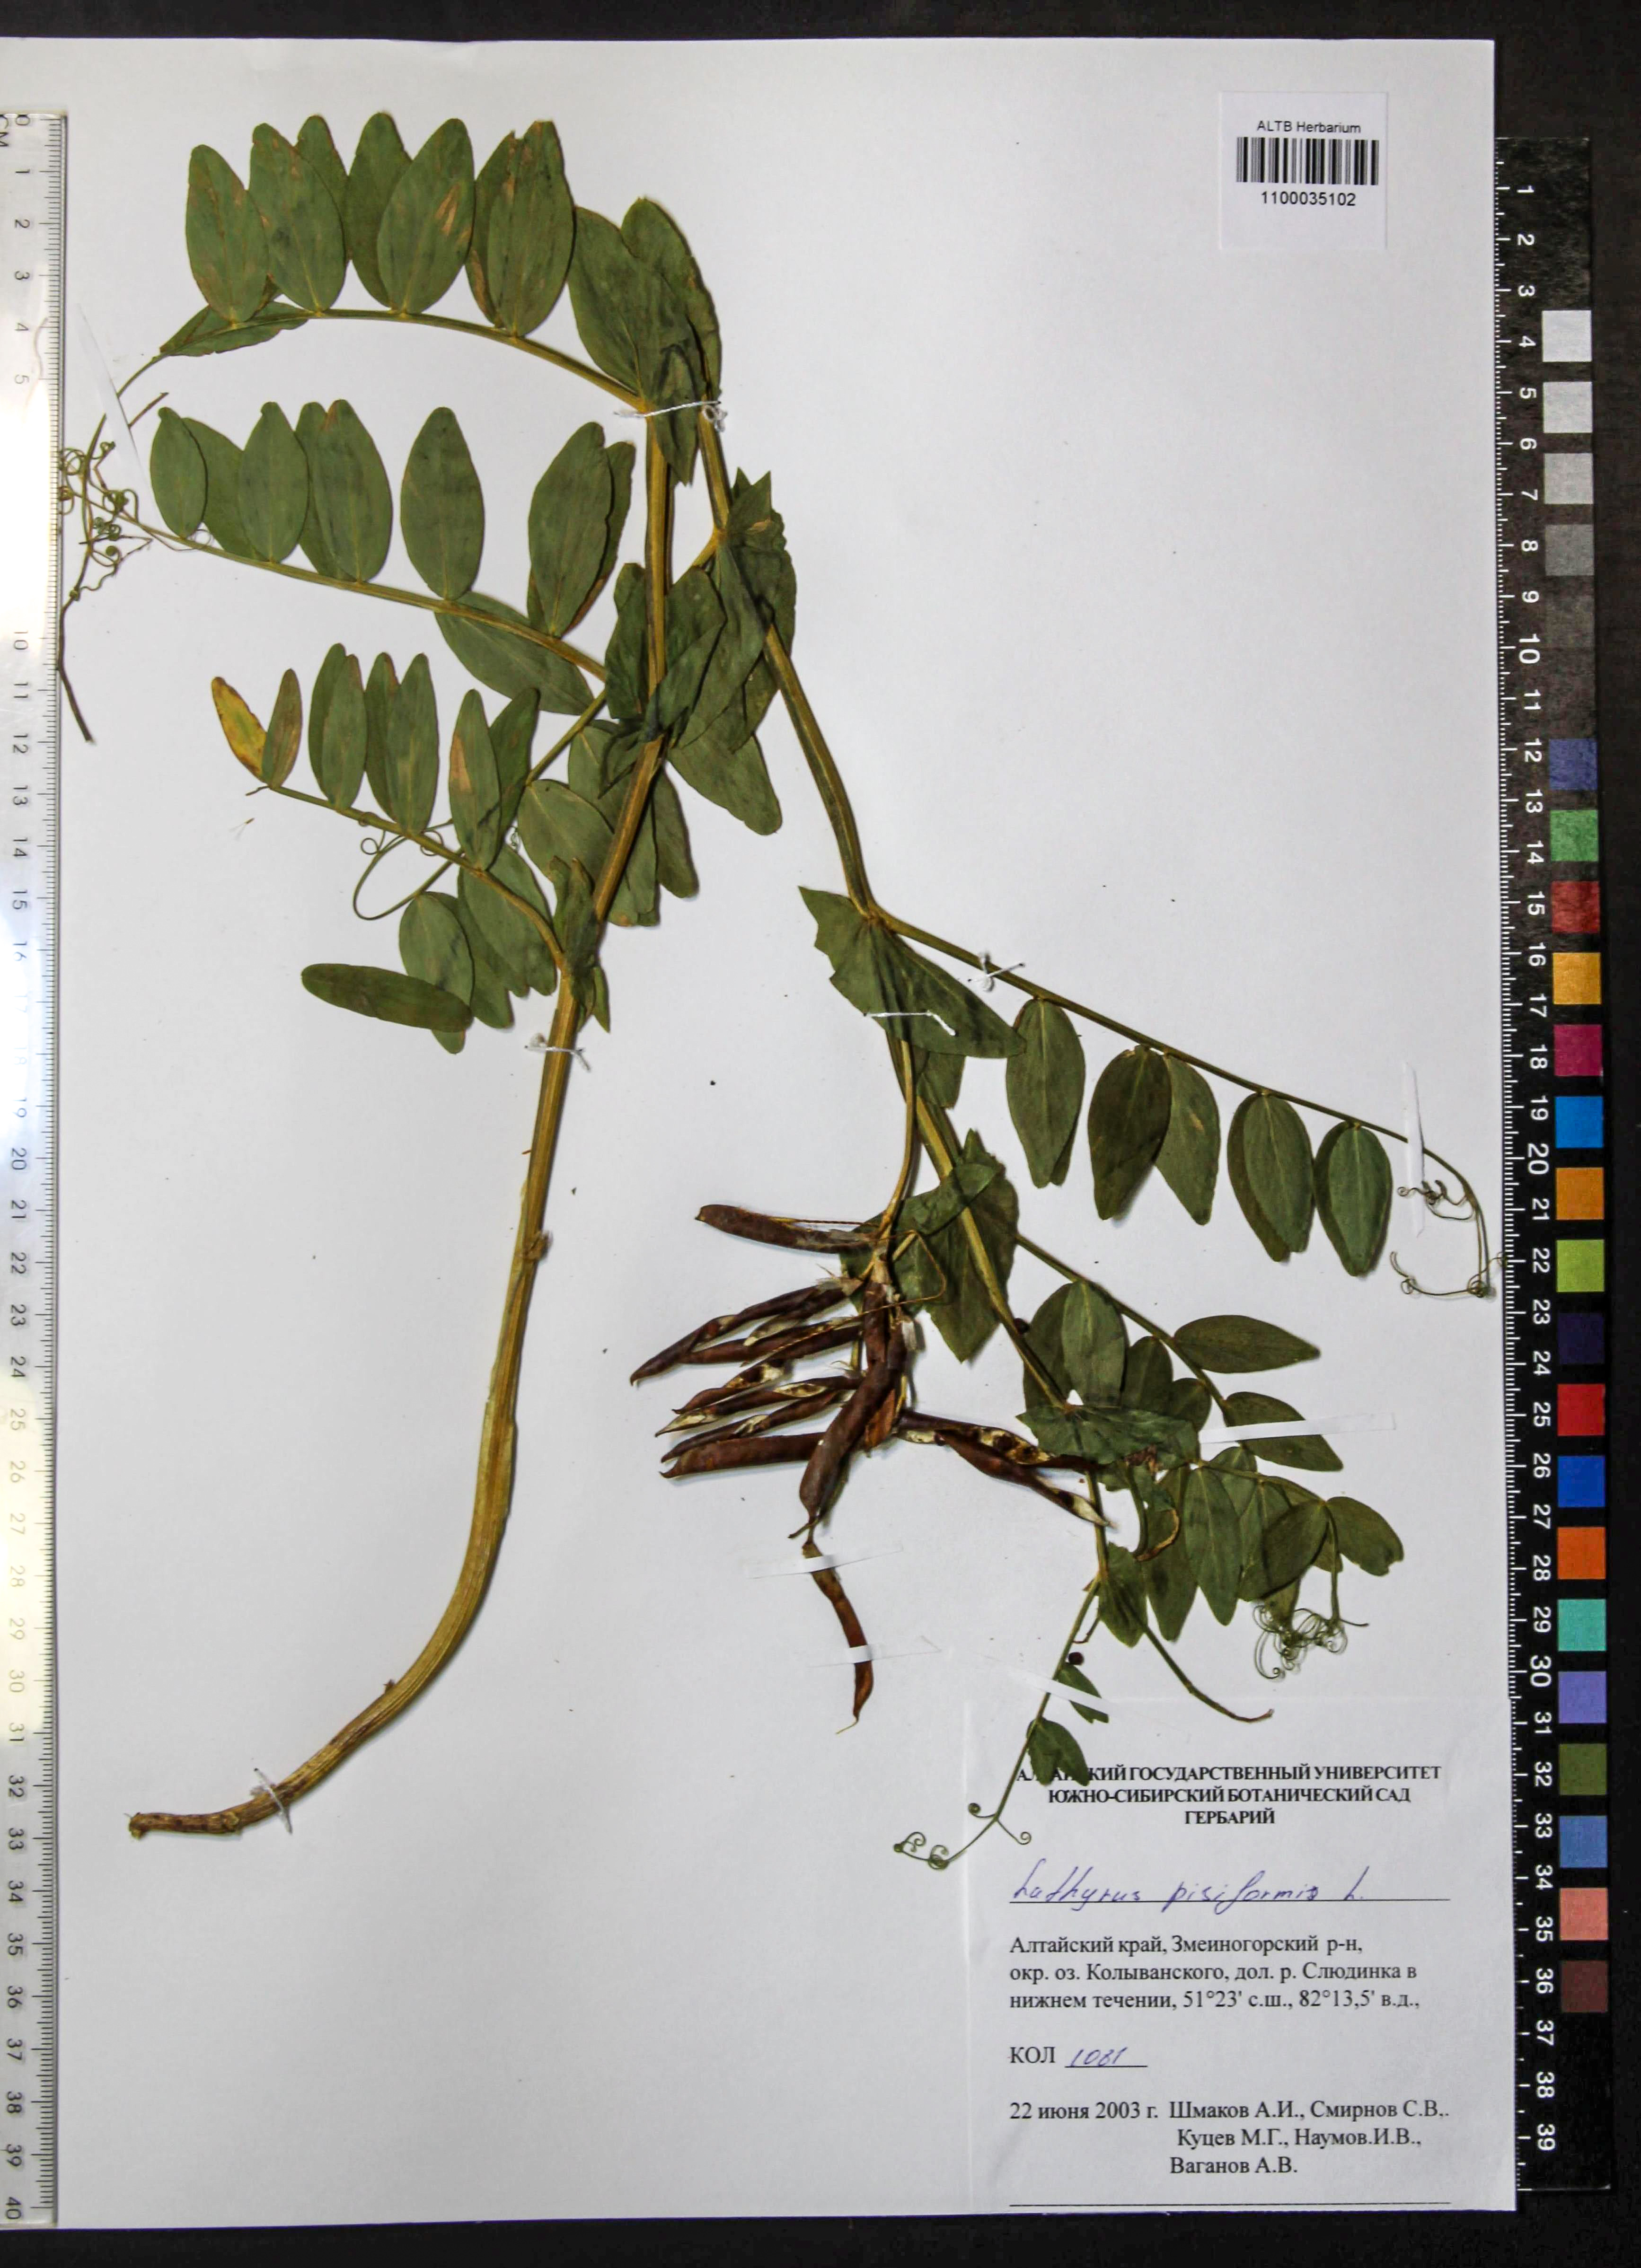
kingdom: Plantae
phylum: Tracheophyta
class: Magnoliopsida
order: Fabales
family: Fabaceae
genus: Lathyrus
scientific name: Lathyrus pisiformis
